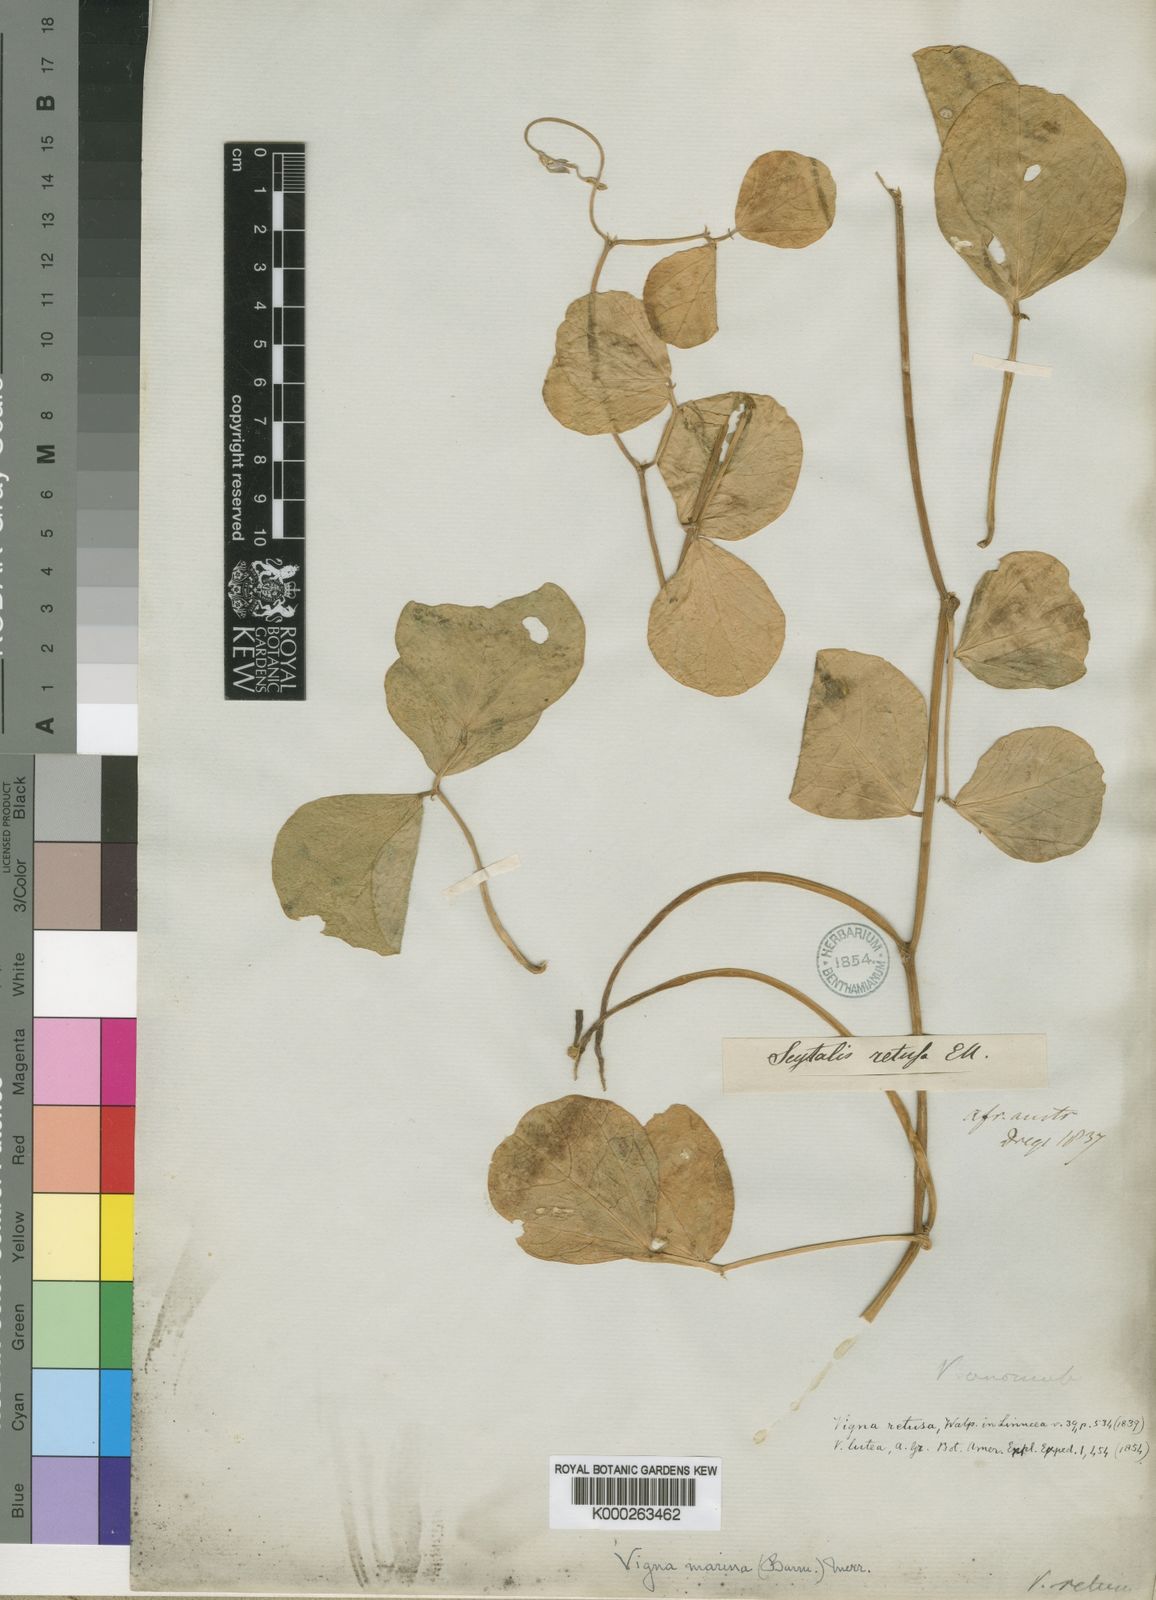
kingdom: Plantae
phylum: Tracheophyta
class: Magnoliopsida
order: Fabales
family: Fabaceae
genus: Vigna
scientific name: Vigna marina
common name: Dune-bean
